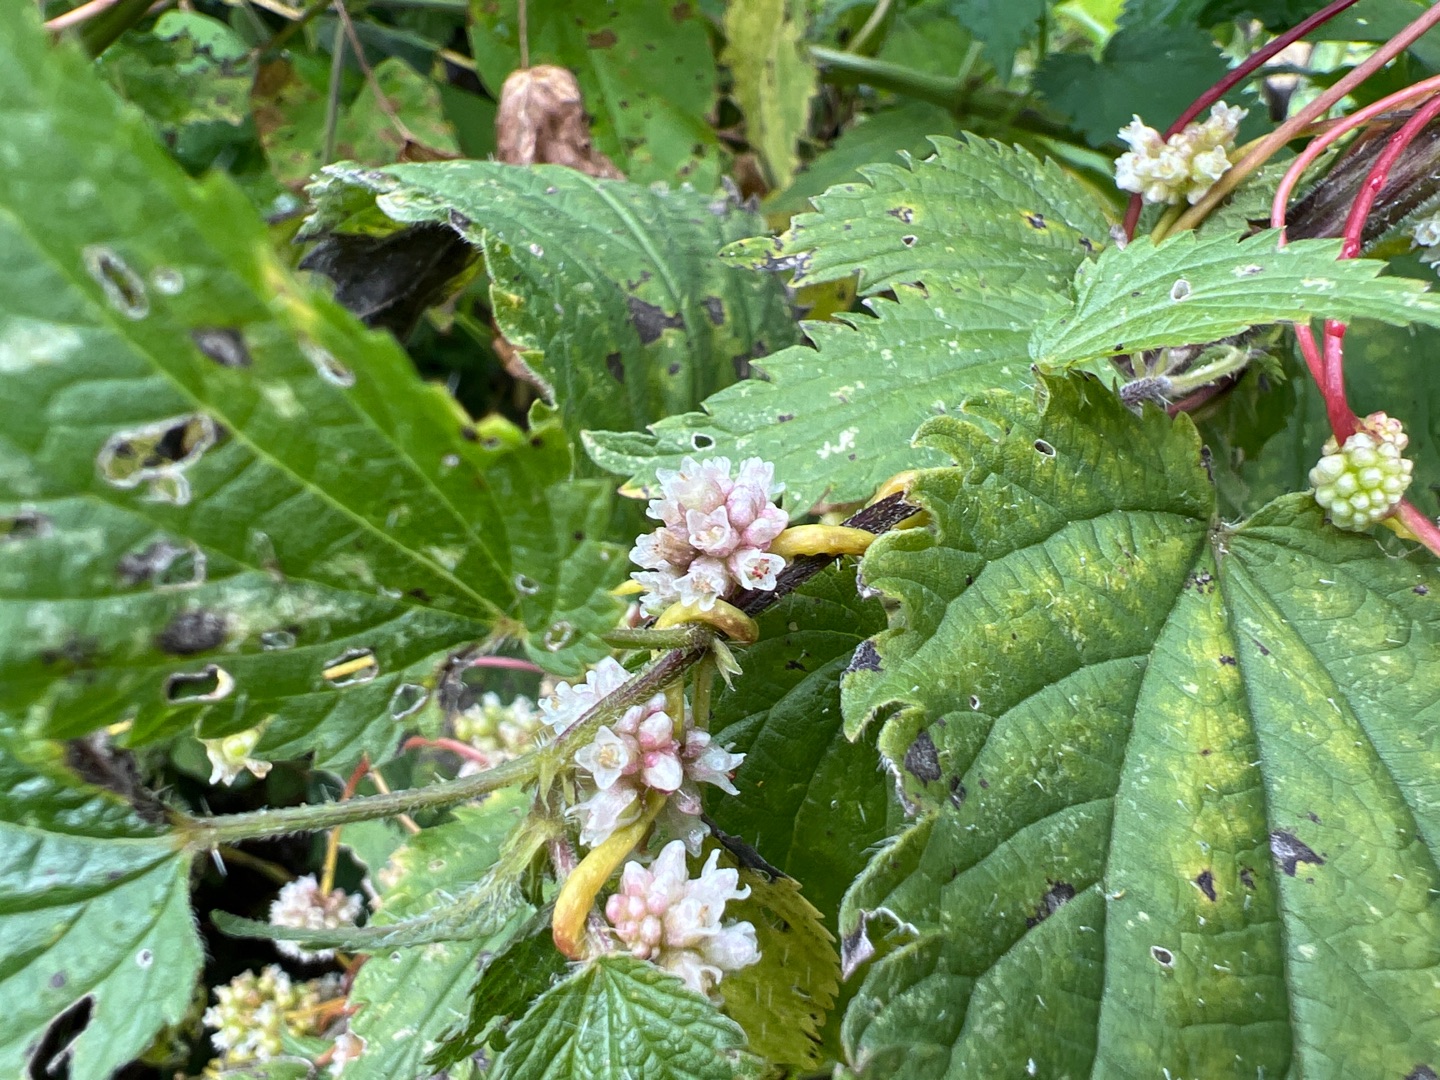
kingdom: Plantae
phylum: Tracheophyta
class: Magnoliopsida
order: Solanales
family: Convolvulaceae
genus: Cuscuta
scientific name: Cuscuta europaea
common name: Nælde-silke
